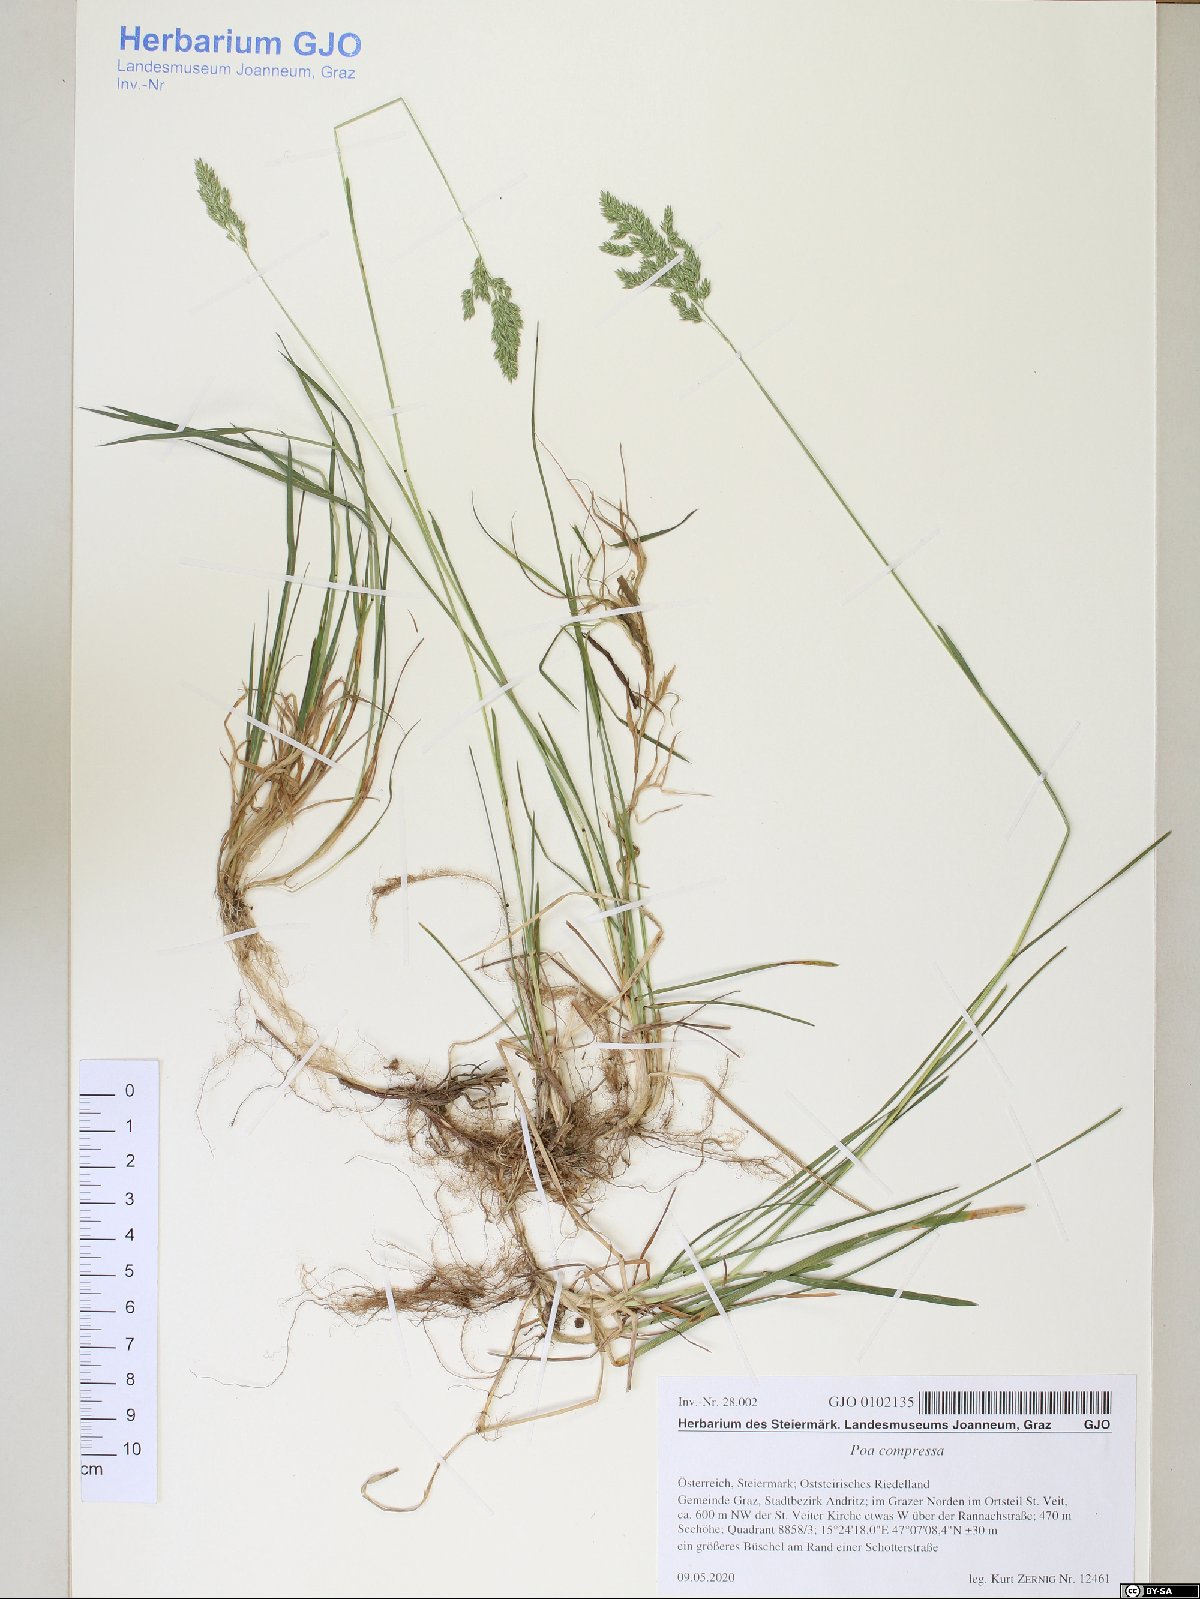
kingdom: Plantae
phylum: Tracheophyta
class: Liliopsida
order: Poales
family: Poaceae
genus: Poa
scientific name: Poa compressa
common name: Canada bluegrass
